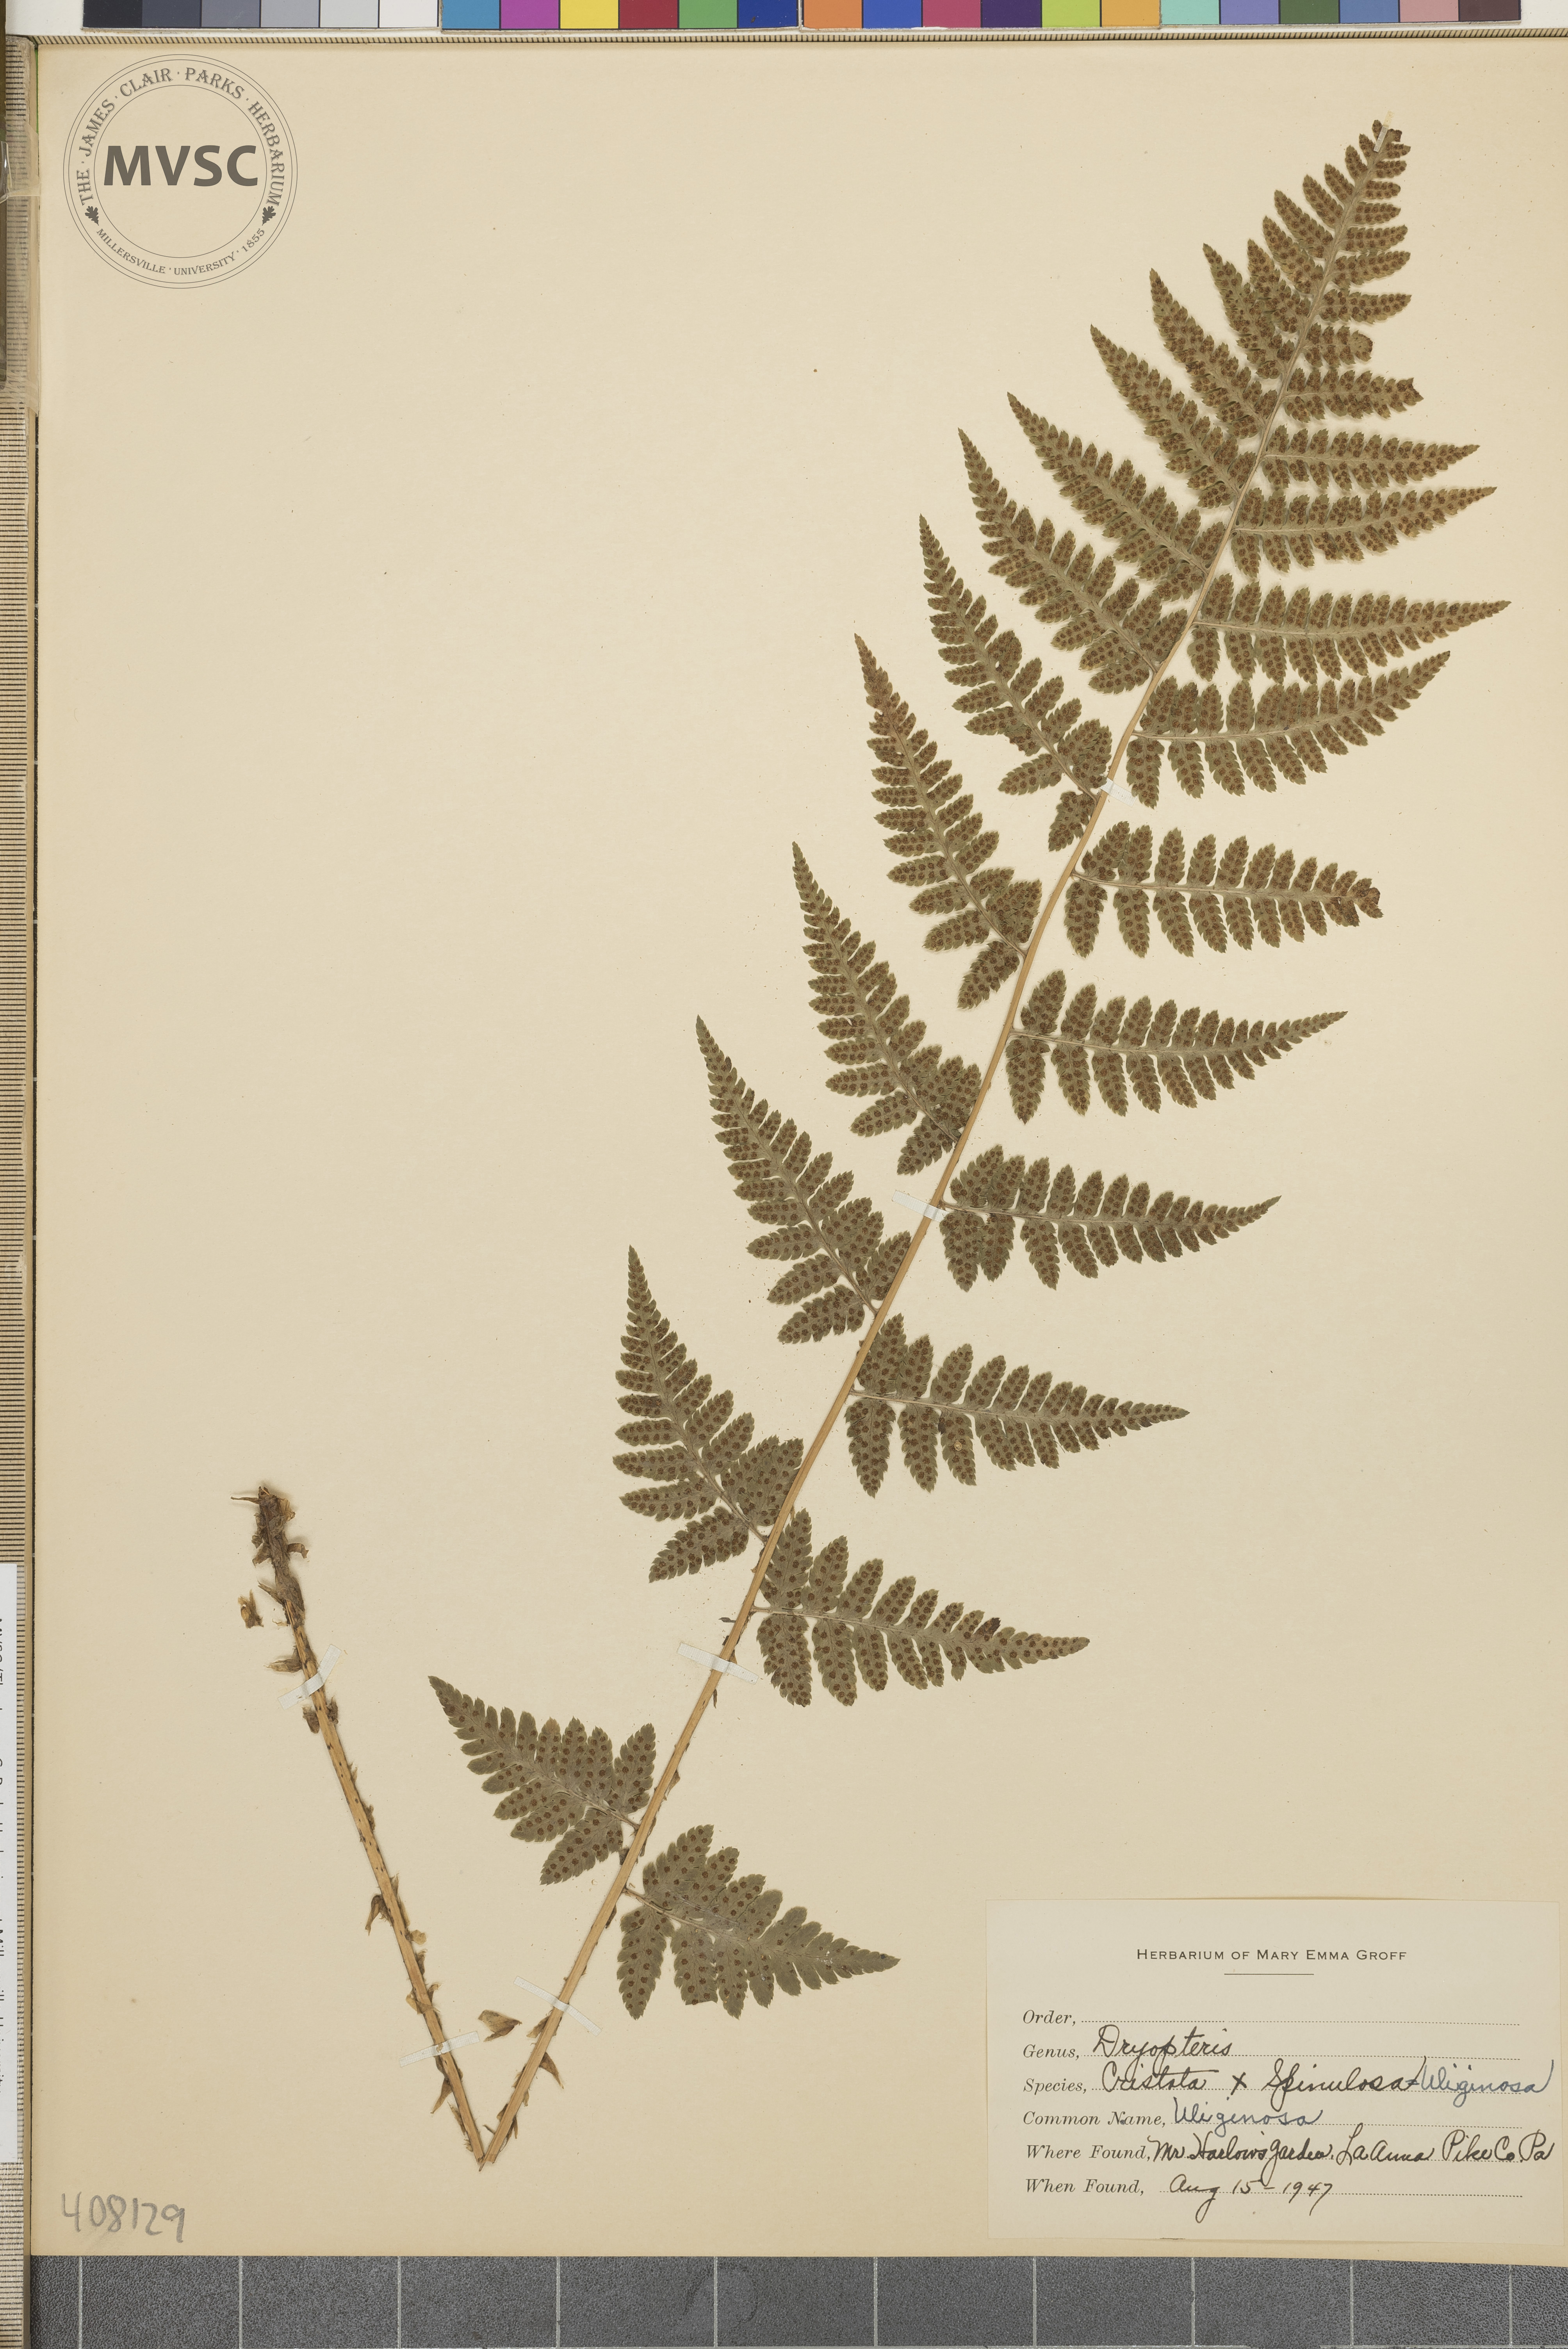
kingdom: Plantae
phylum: Tracheophyta
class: Polypodiopsida
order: Polypodiales
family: Dryopteridaceae
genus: Dryopteris
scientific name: Dryopteris
